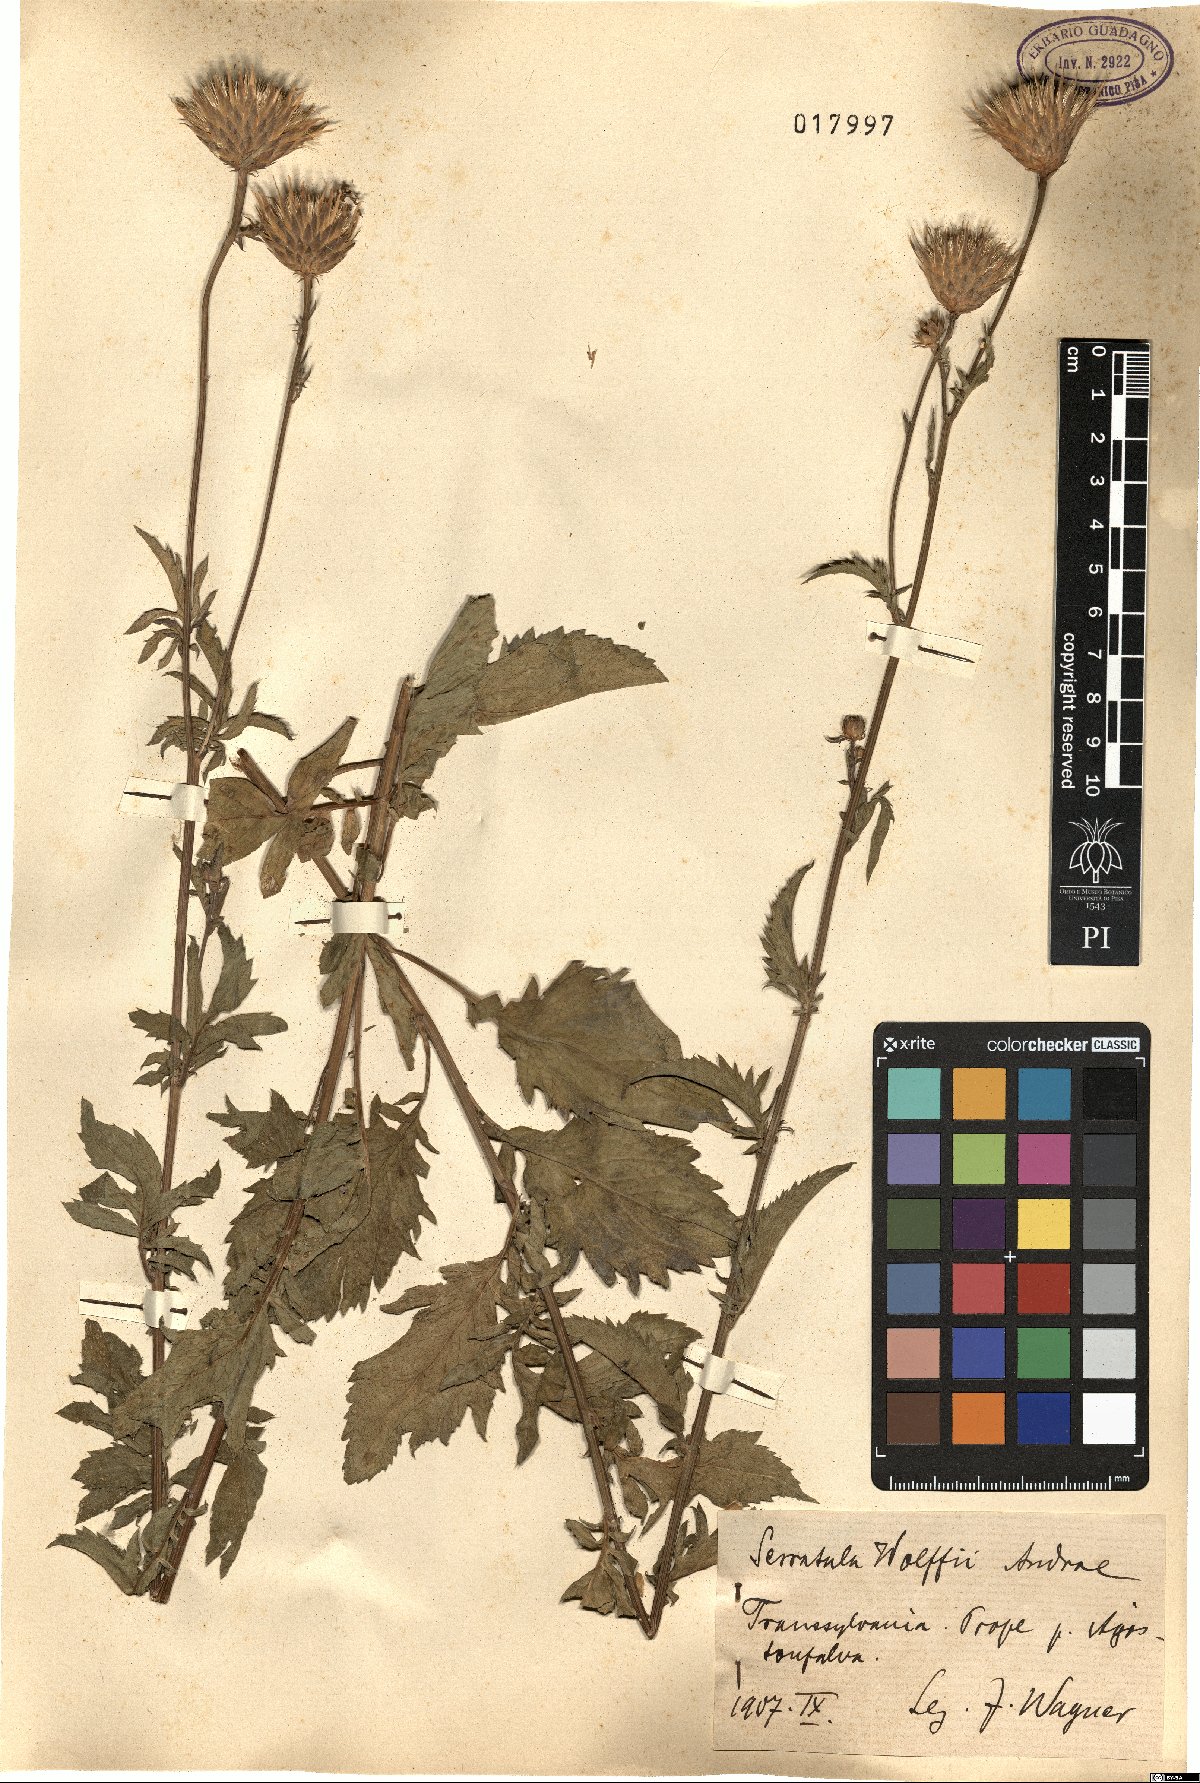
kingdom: Plantae
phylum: Tracheophyta
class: Magnoliopsida
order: Asterales
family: Asteraceae
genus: Serratula
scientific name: Serratula coronata
